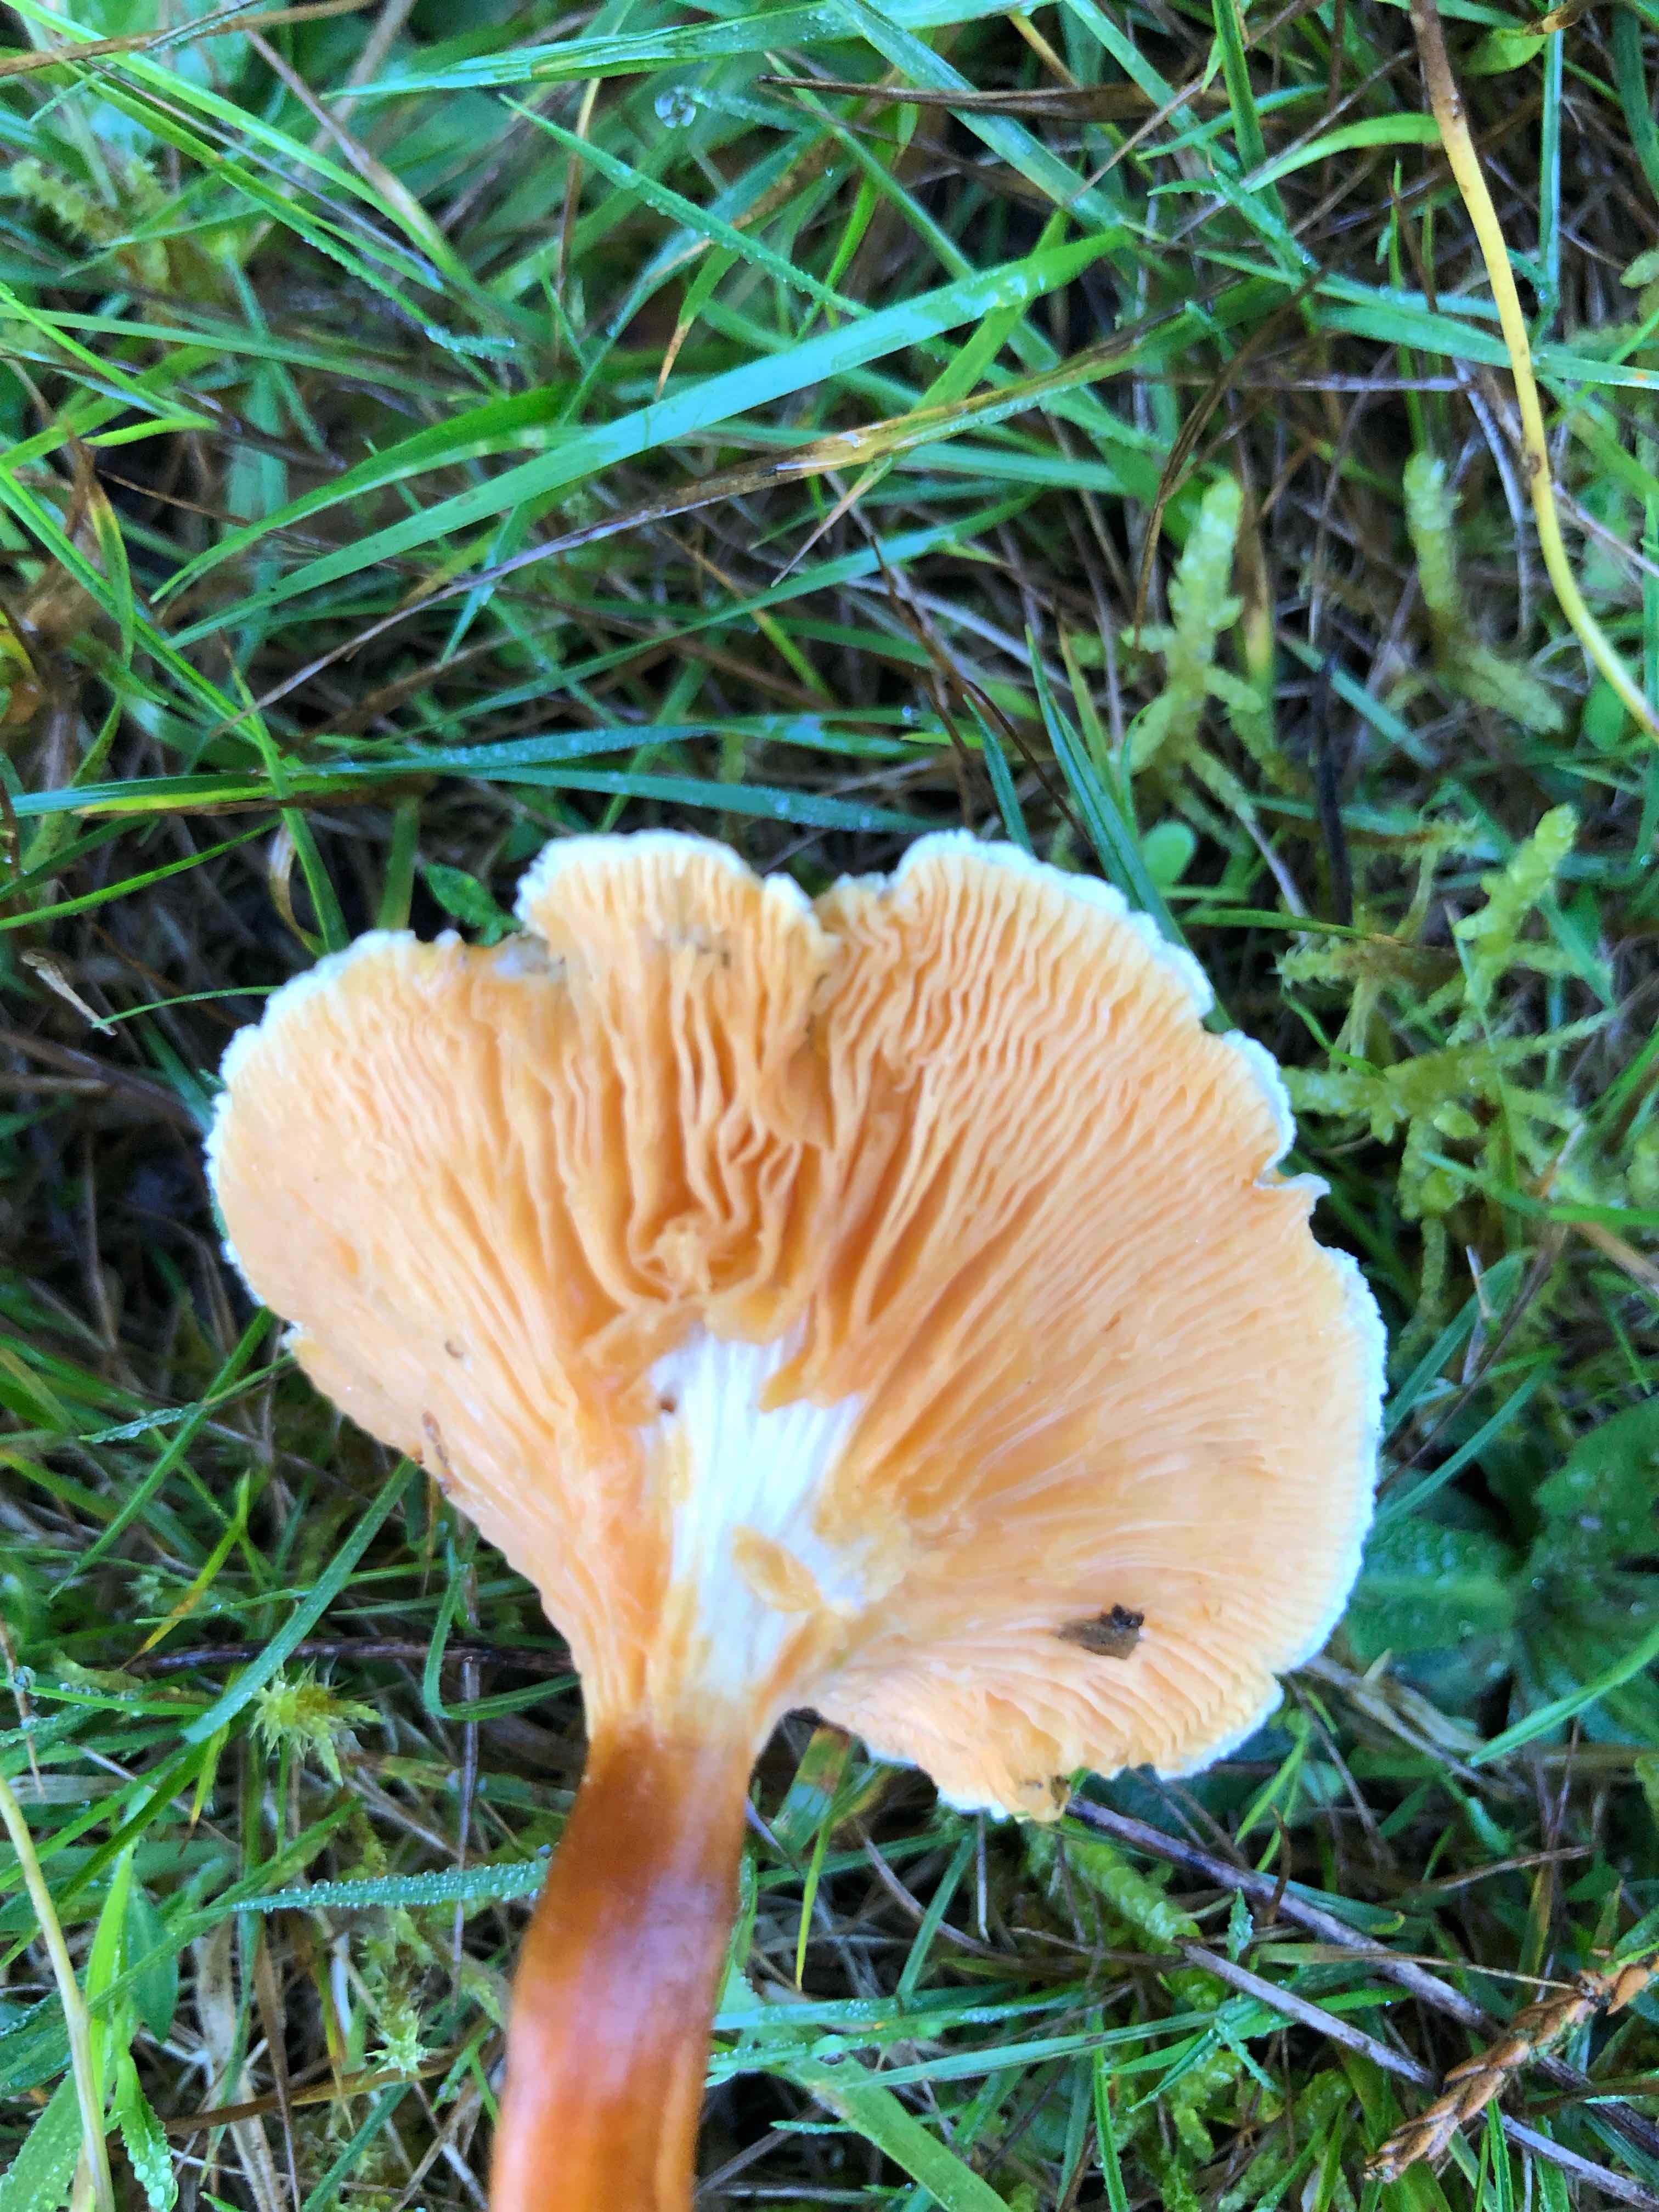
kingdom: Fungi
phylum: Basidiomycota
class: Agaricomycetes
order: Boletales
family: Hygrophoropsidaceae
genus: Hygrophoropsis
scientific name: Hygrophoropsis
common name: orangekantarel
